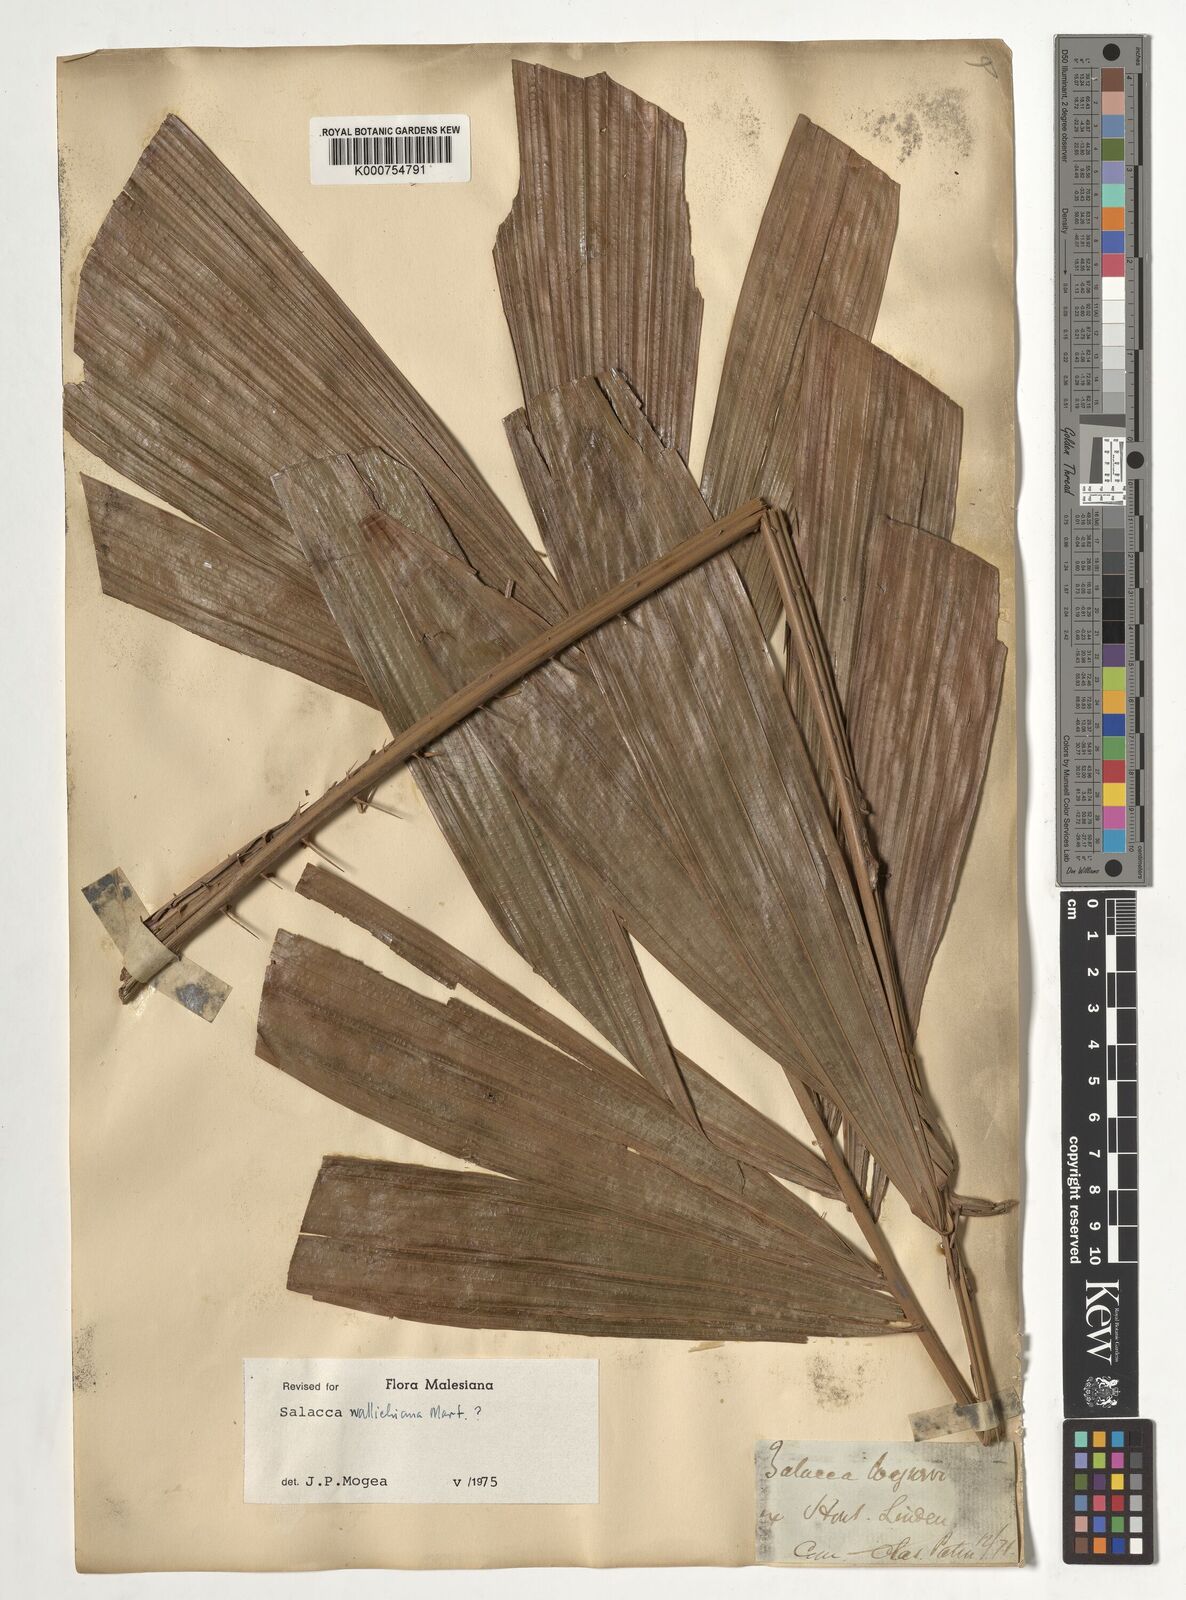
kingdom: Plantae
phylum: Tracheophyta
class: Liliopsida
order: Arecales
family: Arecaceae
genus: Salacca
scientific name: Salacca wallichiana
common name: Rakum palm
